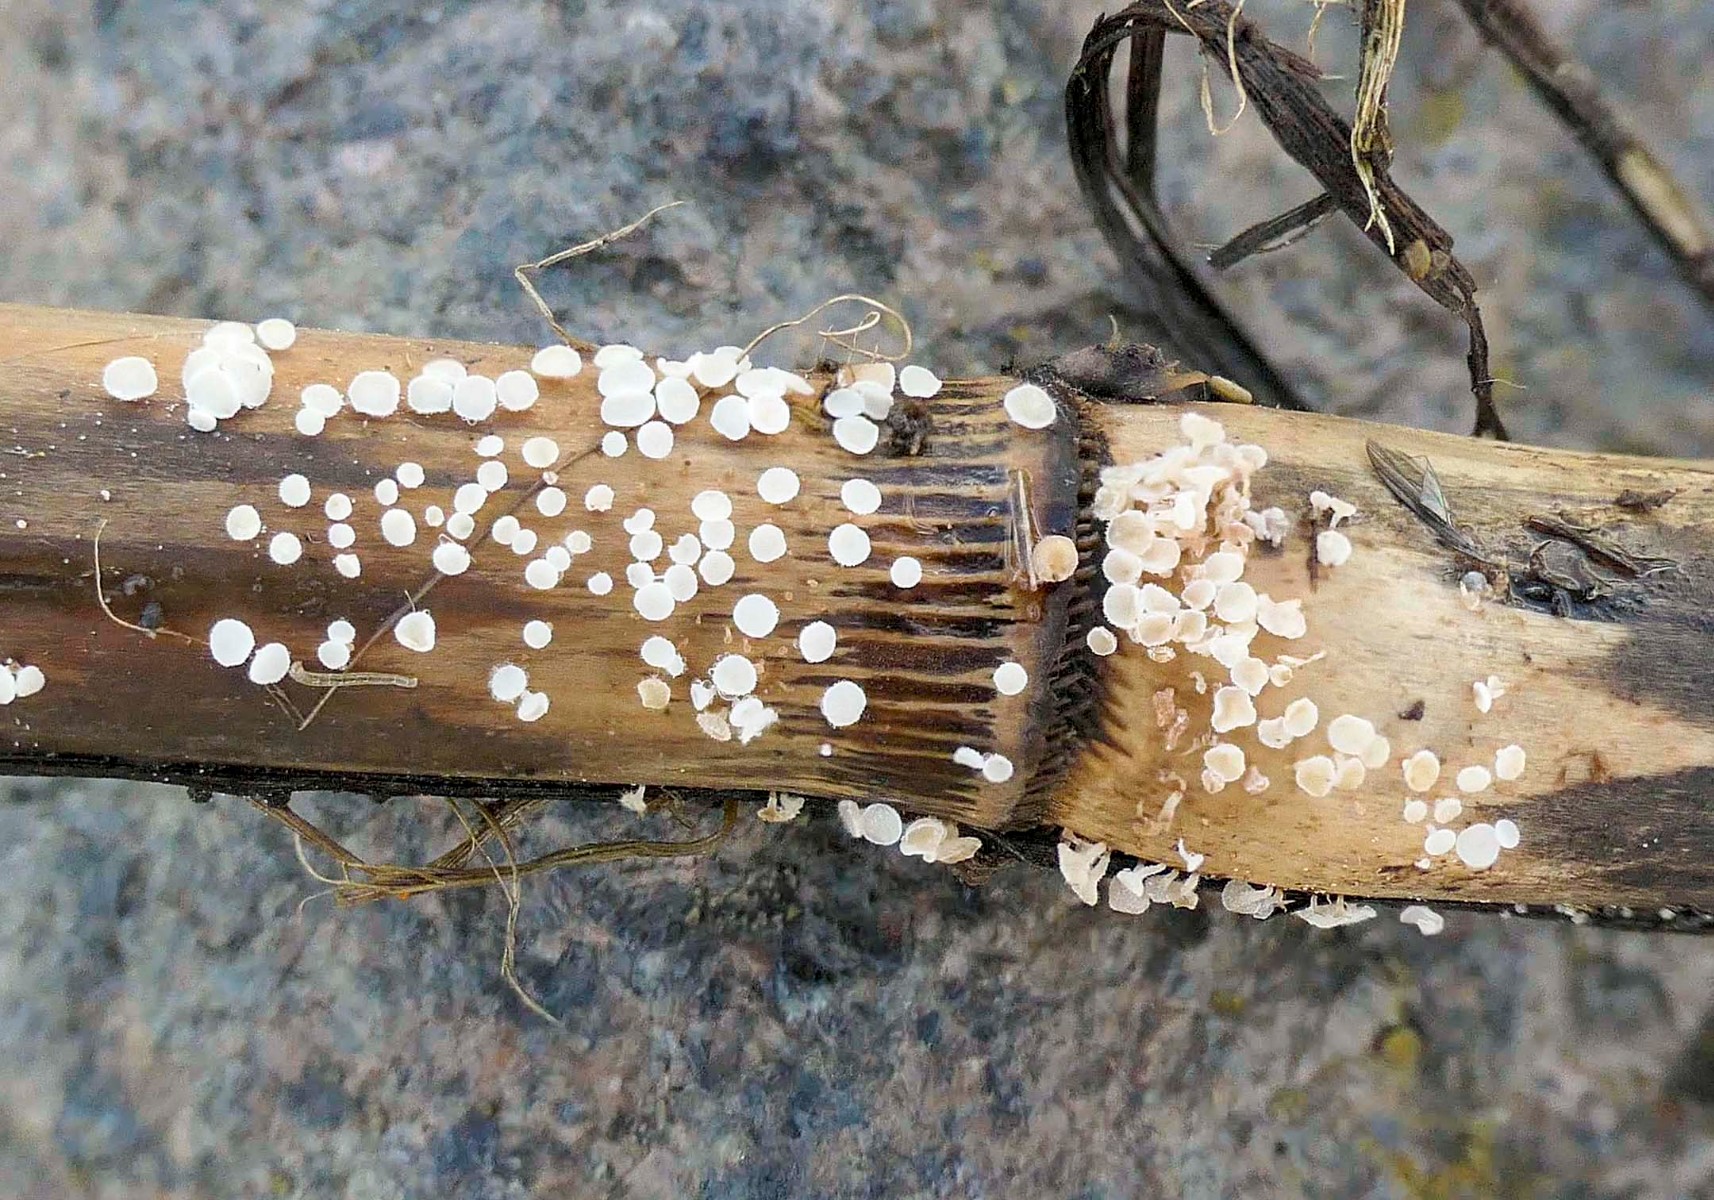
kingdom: Fungi
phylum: Ascomycota
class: Leotiomycetes
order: Helotiales
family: Lachnaceae
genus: Lachnum
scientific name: Lachnum controversum
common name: tagrør-frynseskive
